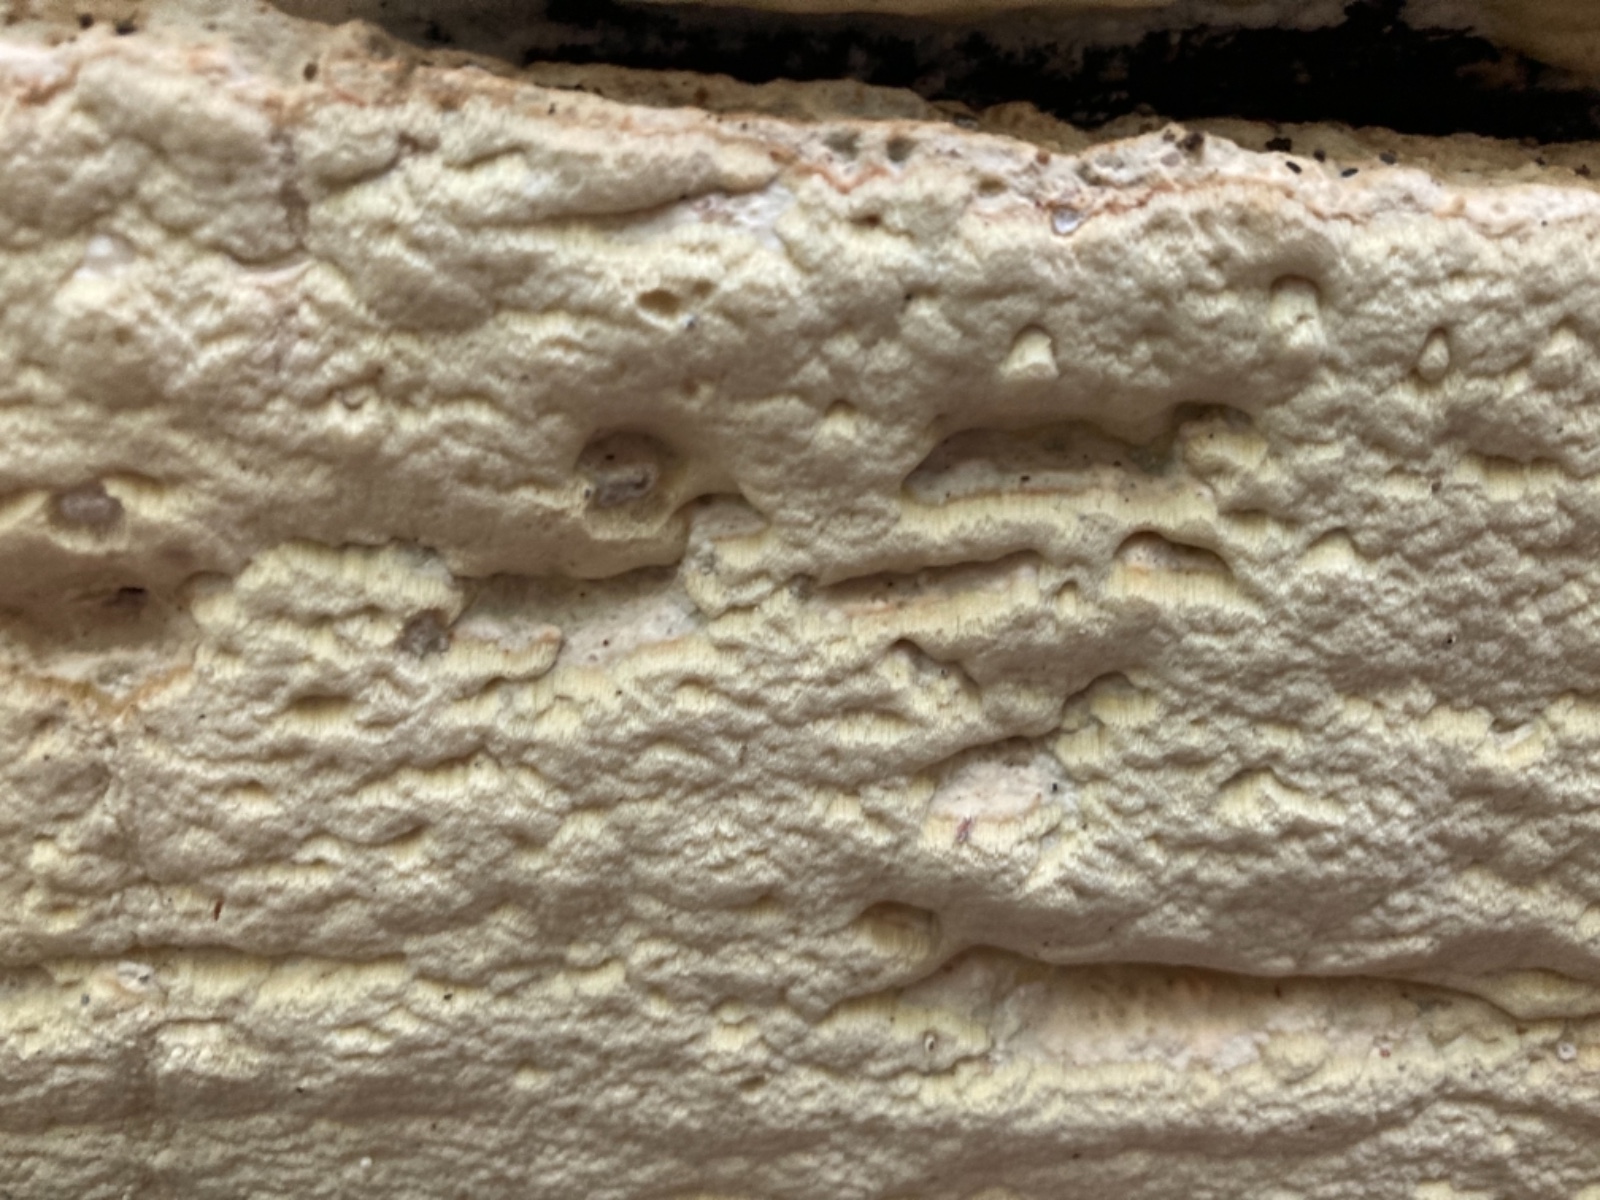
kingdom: Fungi
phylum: Basidiomycota
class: Agaricomycetes
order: Polyporales
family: Irpicaceae
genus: Gloeoporus
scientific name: Gloeoporus pannocinctus
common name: grøngul foldporesvamp
